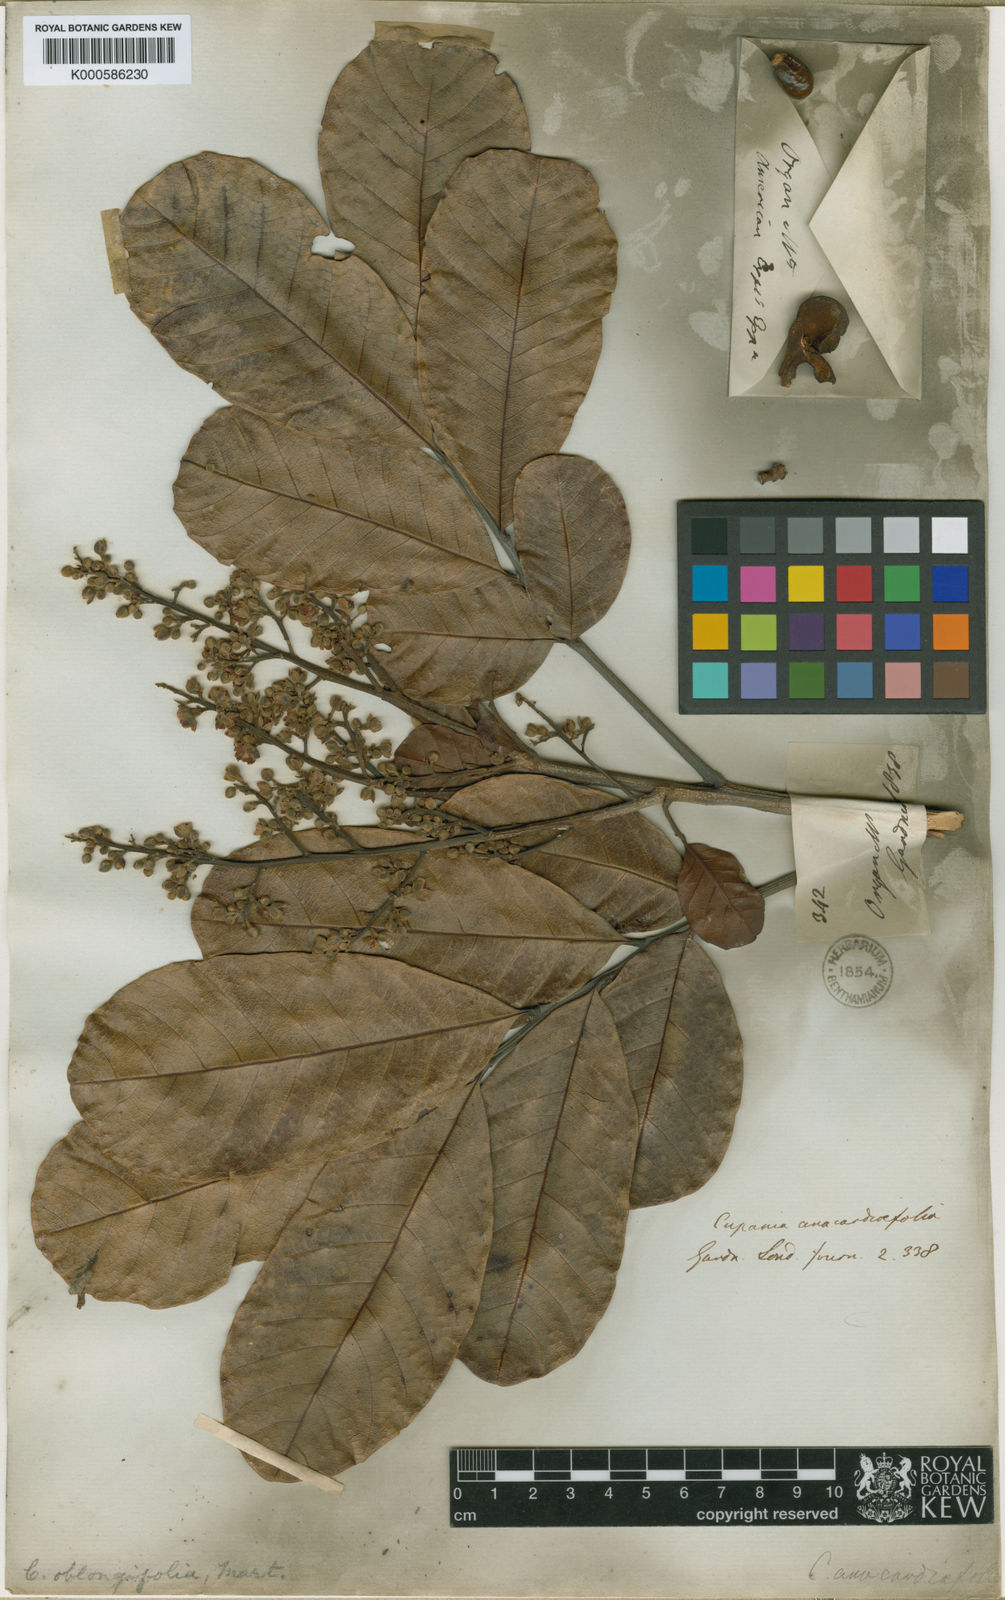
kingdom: Plantae
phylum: Tracheophyta
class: Magnoliopsida
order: Sapindales
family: Sapindaceae
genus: Cupania
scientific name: Cupania oblongifolia
